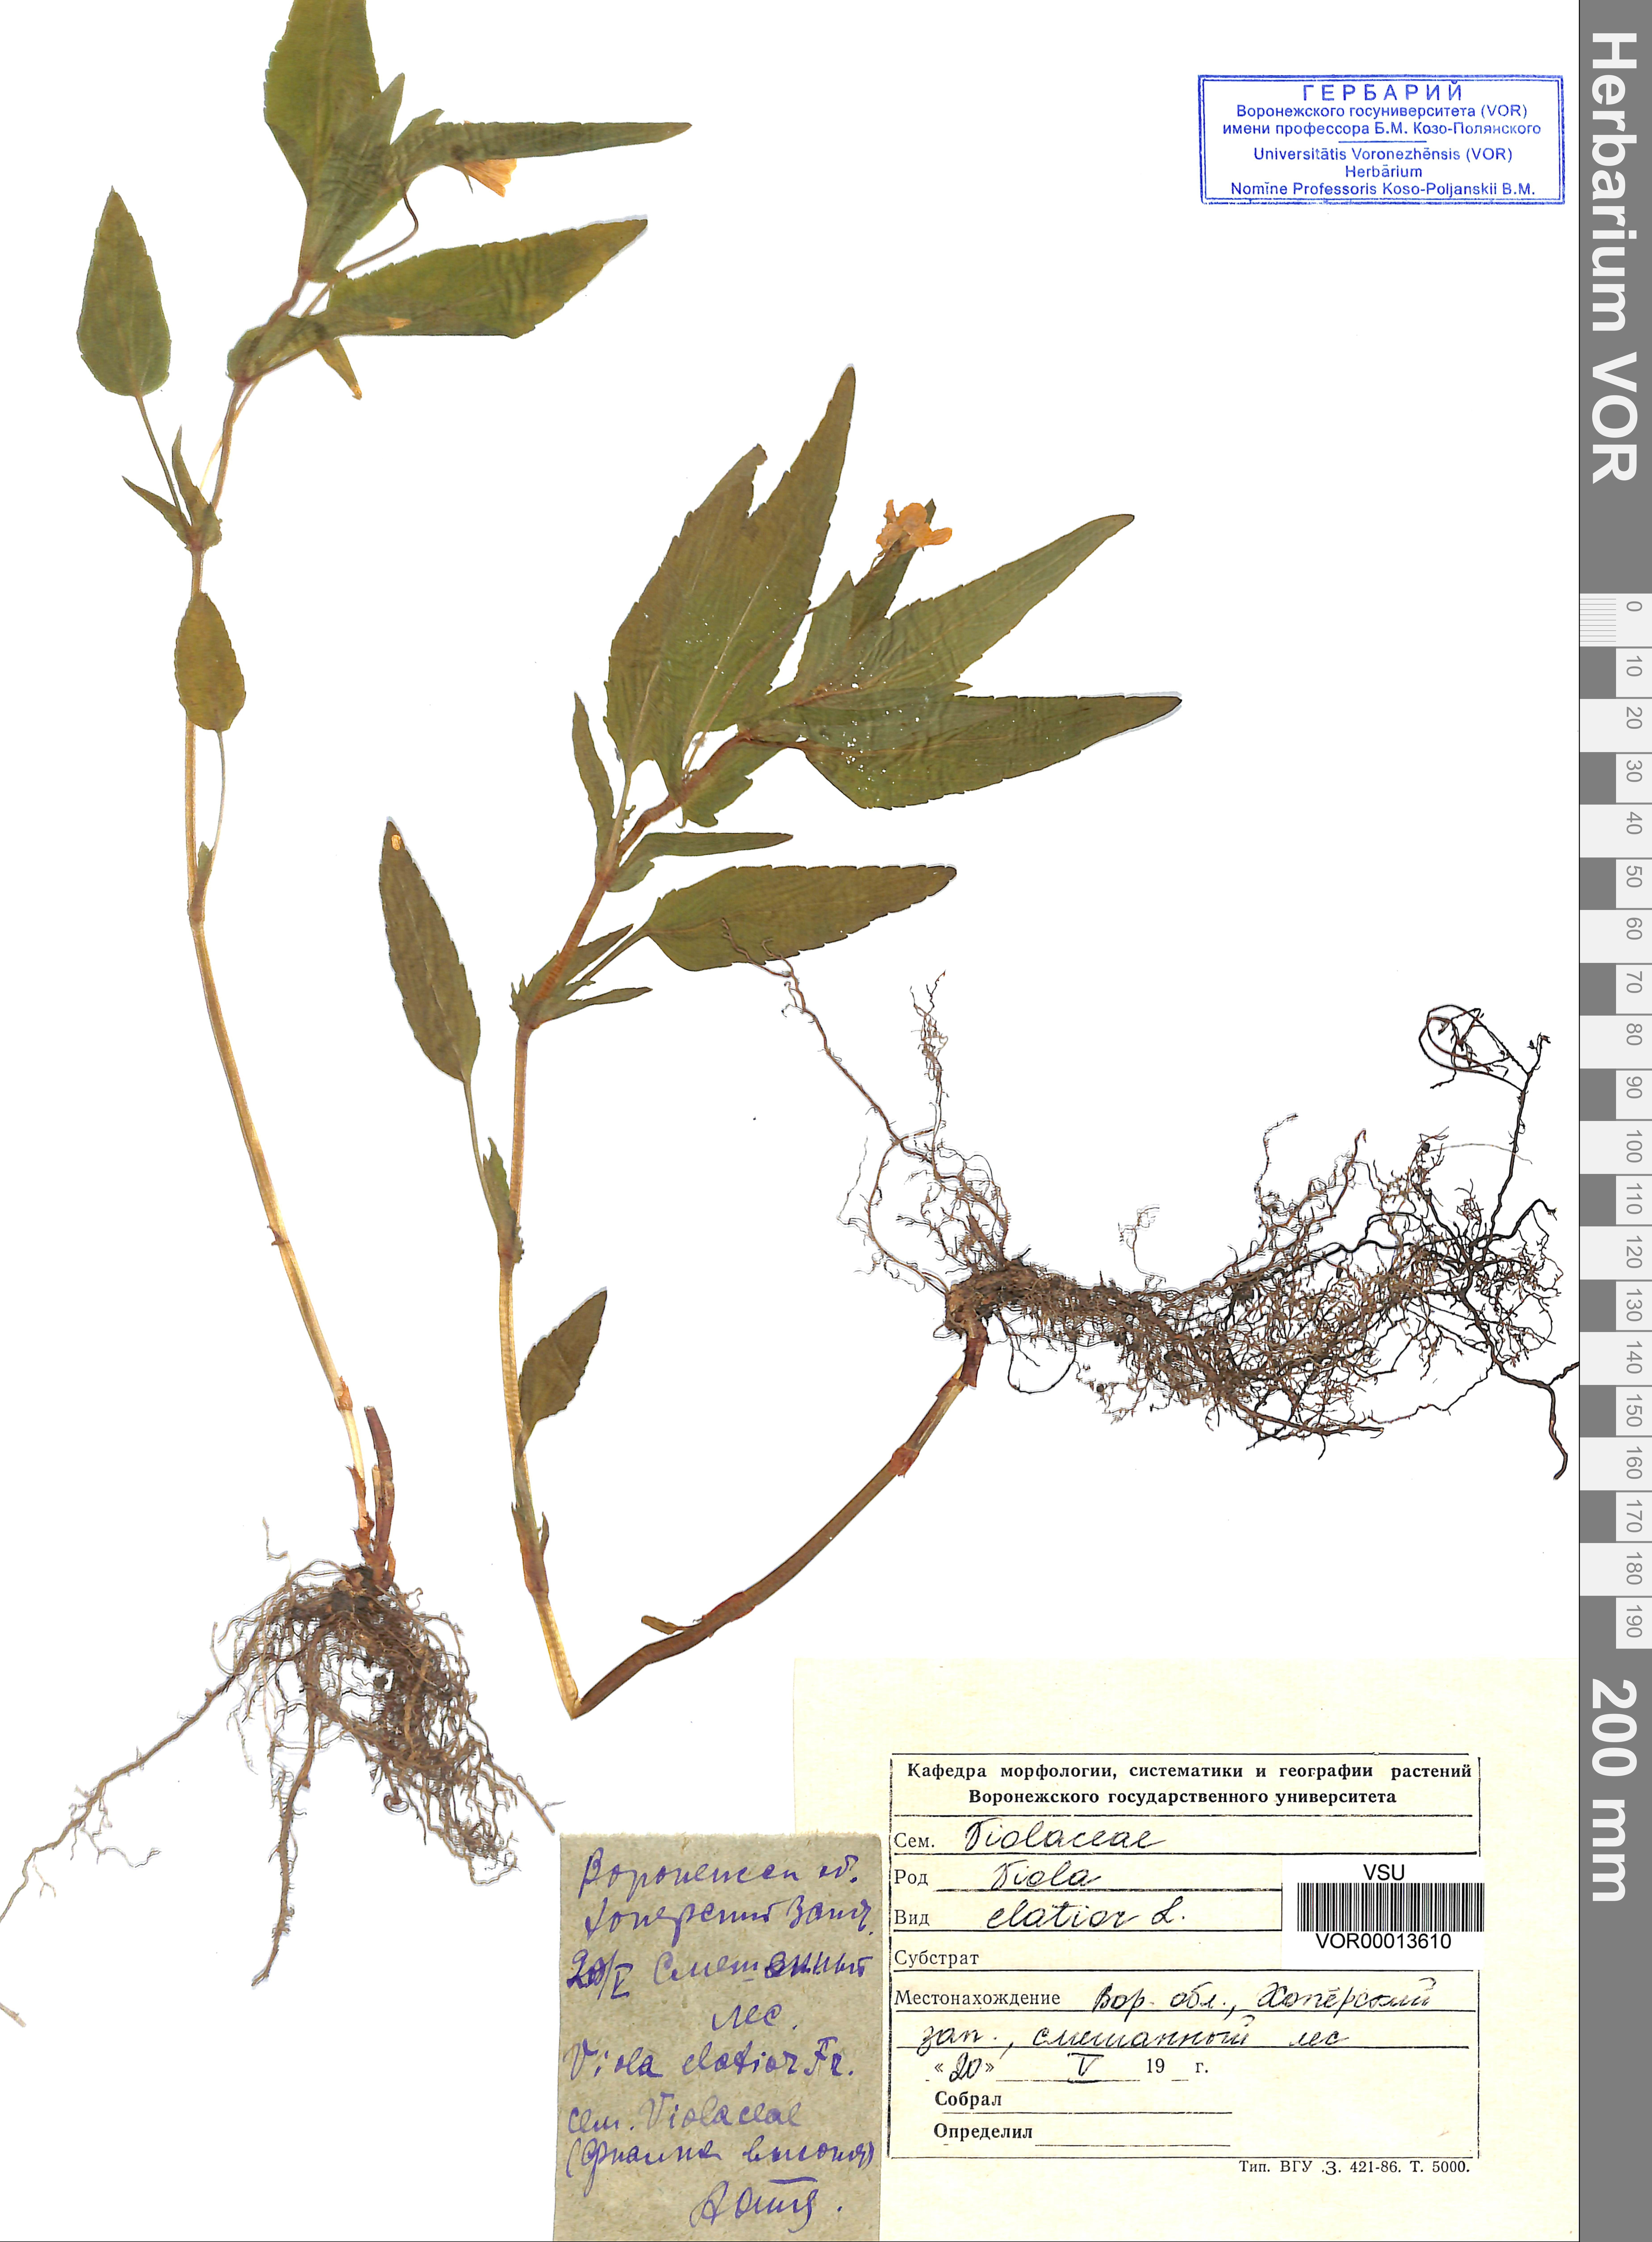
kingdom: Plantae
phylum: Tracheophyta
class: Magnoliopsida
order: Malpighiales
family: Violaceae
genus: Viola
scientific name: Viola elatior
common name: Tall violet
